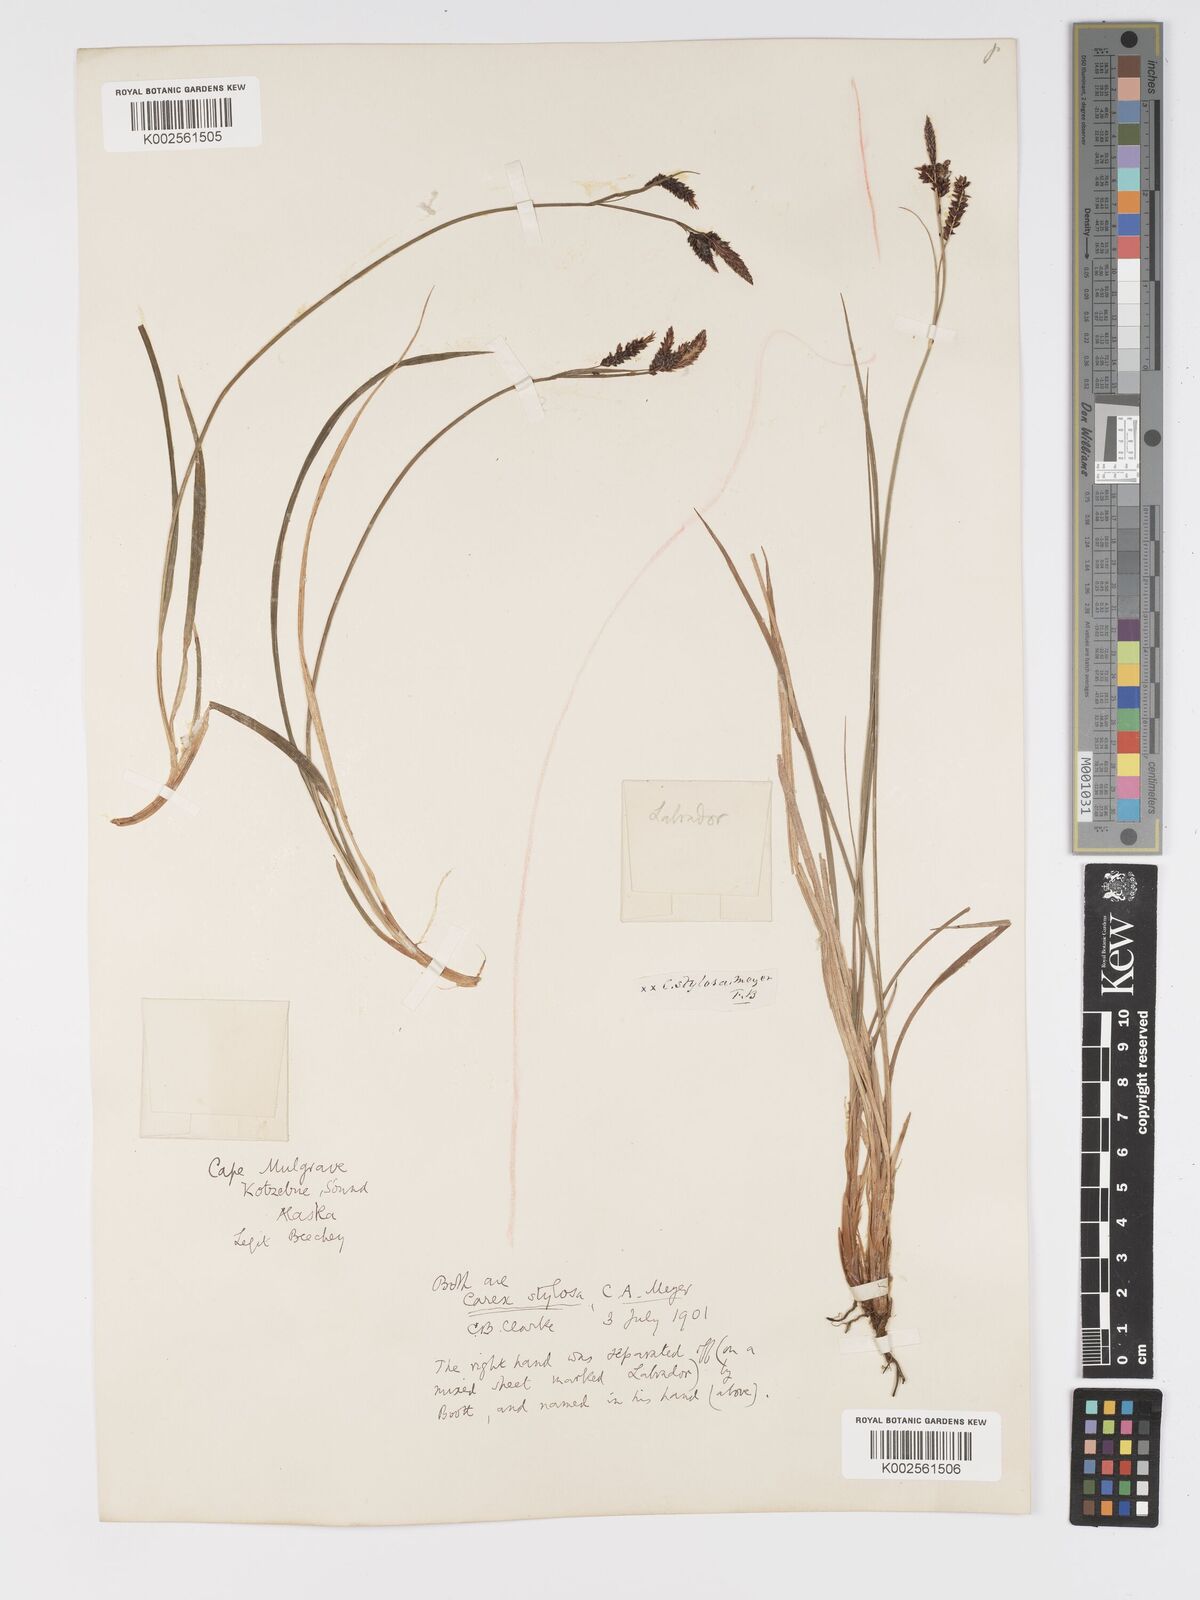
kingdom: Plantae
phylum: Tracheophyta
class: Liliopsida
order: Poales
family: Cyperaceae
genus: Carex
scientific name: Carex stylosa
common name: Long-styled sedge
